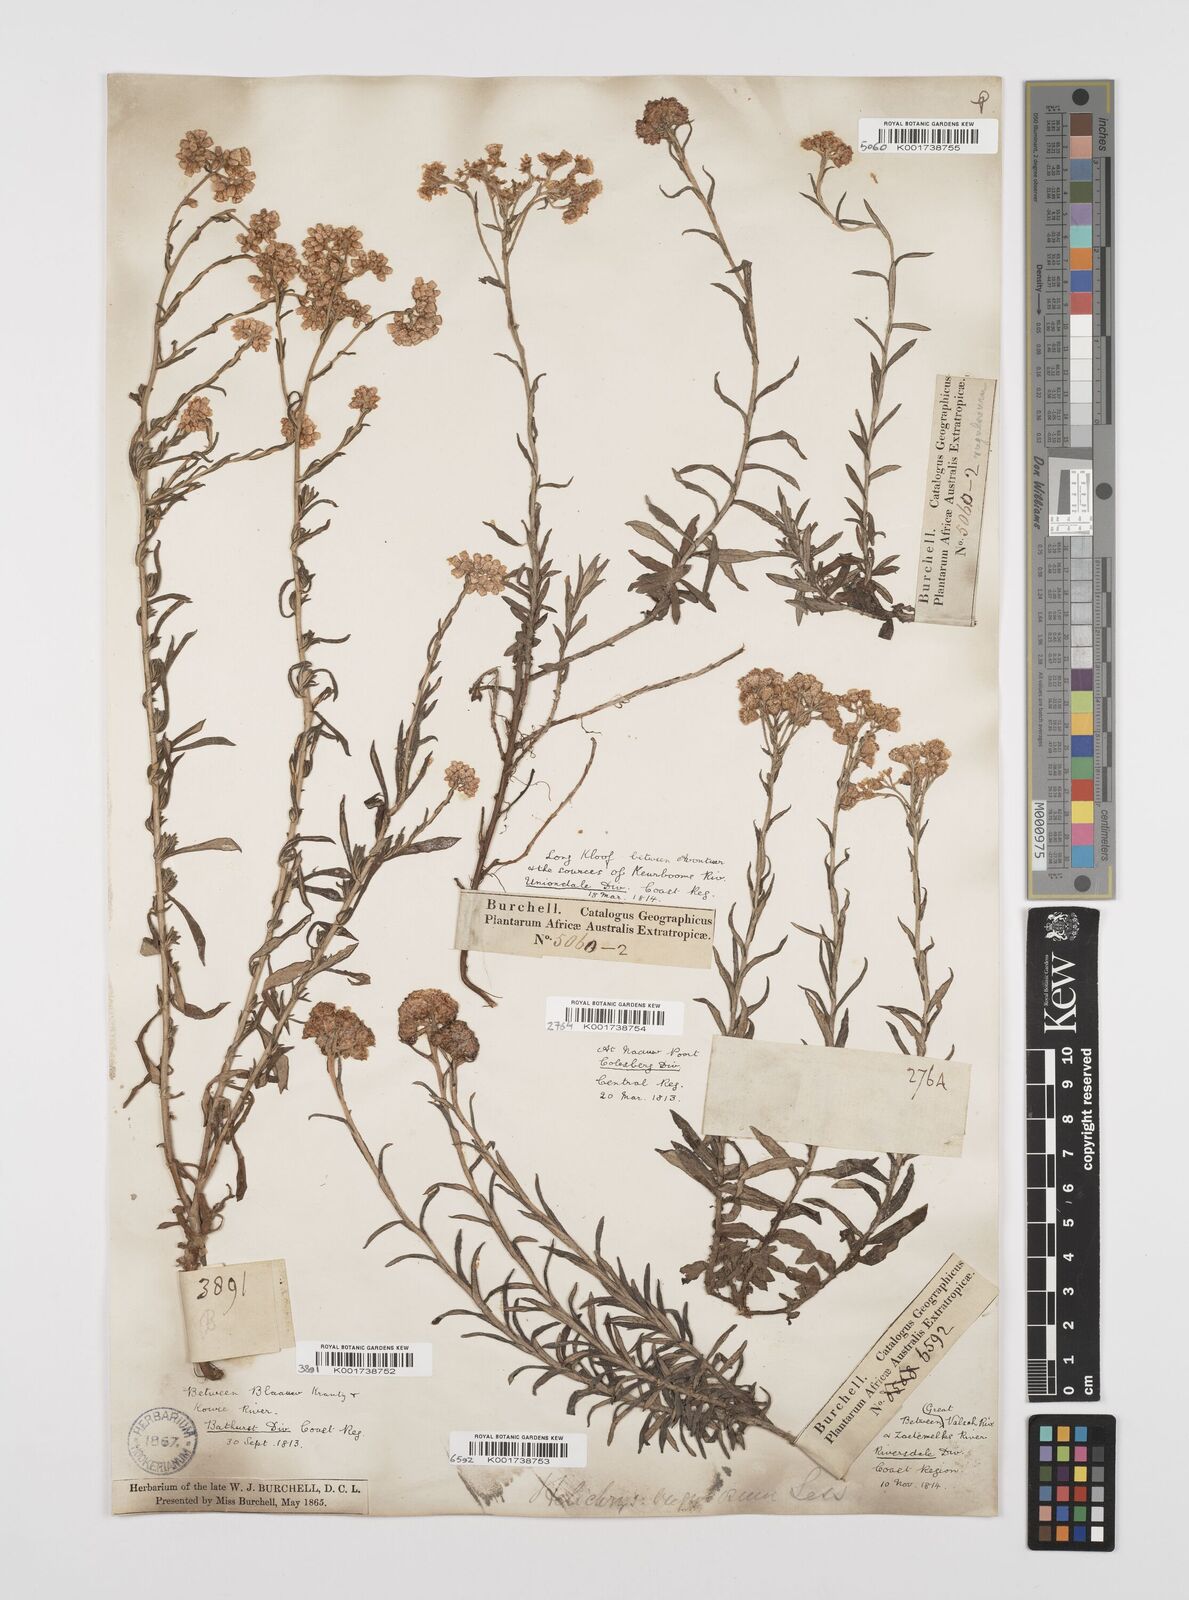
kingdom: Plantae
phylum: Tracheophyta
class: Magnoliopsida
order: Asterales
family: Asteraceae
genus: Helichrysum
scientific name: Helichrysum rugulosum
